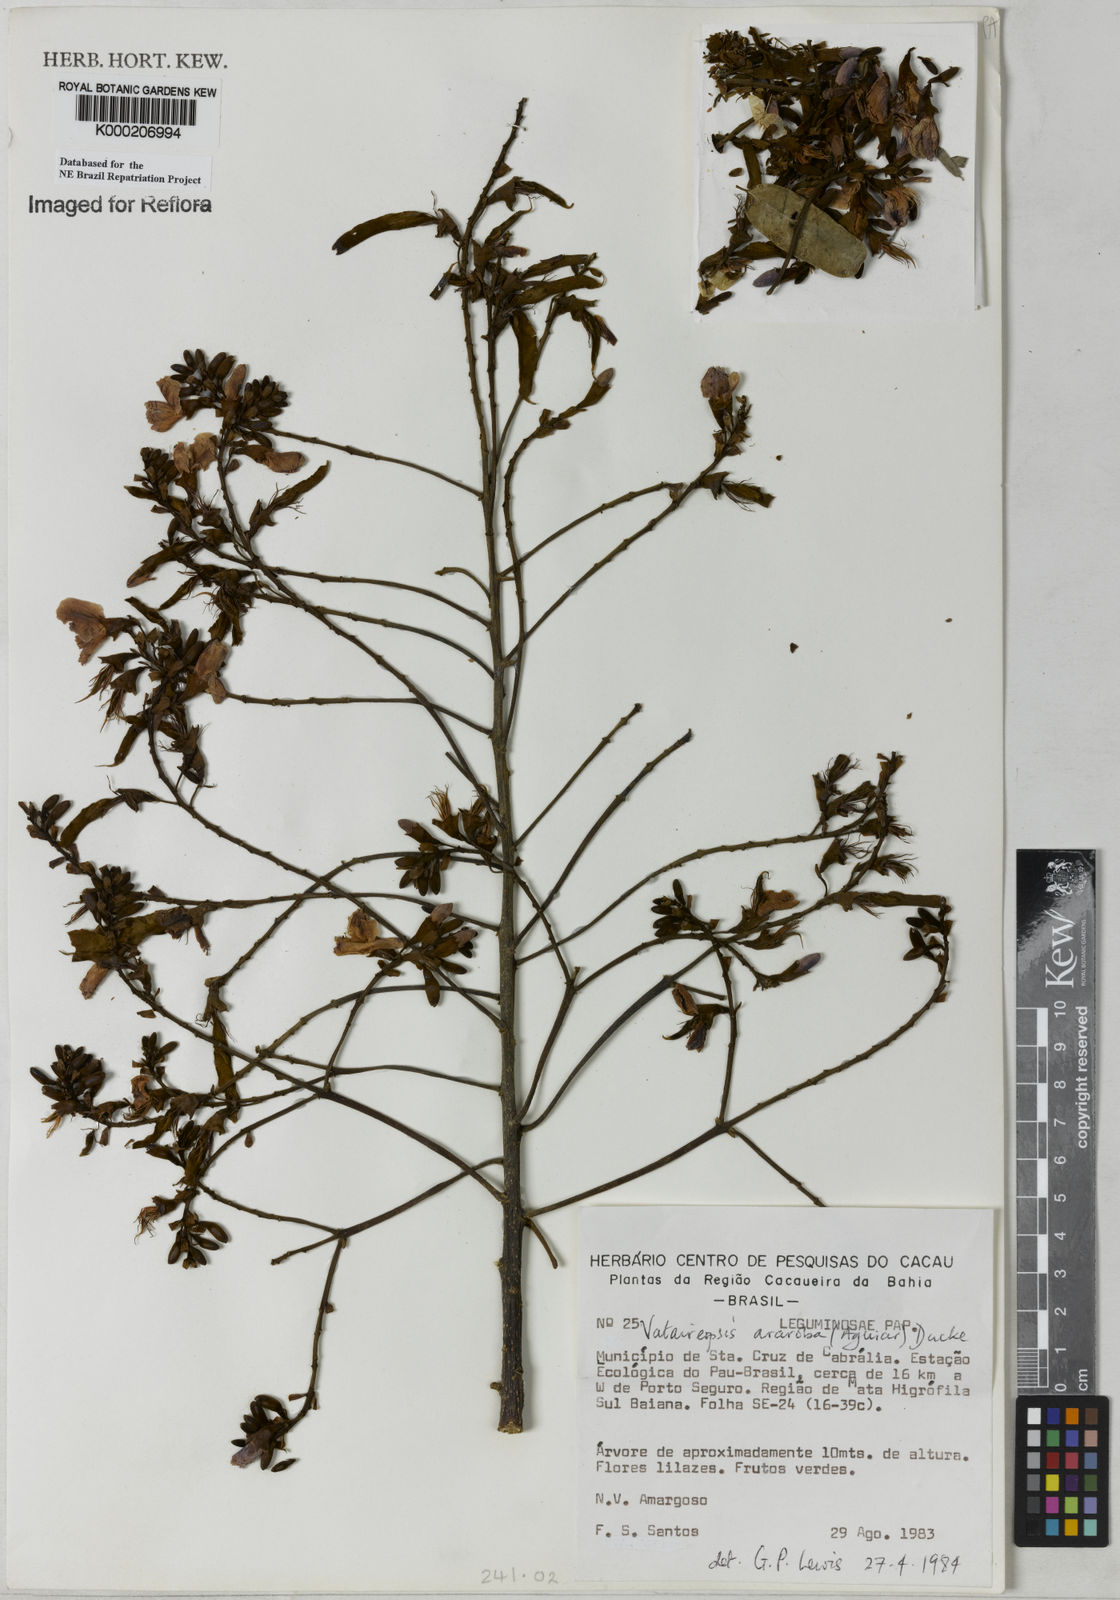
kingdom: Plantae
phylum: Tracheophyta
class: Magnoliopsida
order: Fabales
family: Fabaceae
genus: Vataireopsis
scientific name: Vataireopsis araroba
